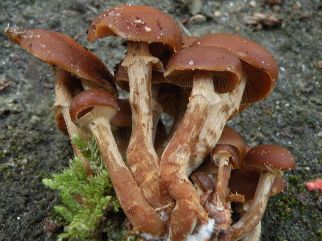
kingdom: Fungi
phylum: Basidiomycota
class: Agaricomycetes
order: Agaricales
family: Hymenogastraceae
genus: Galerina
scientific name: Galerina marginata
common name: randbæltet hjelmhat
